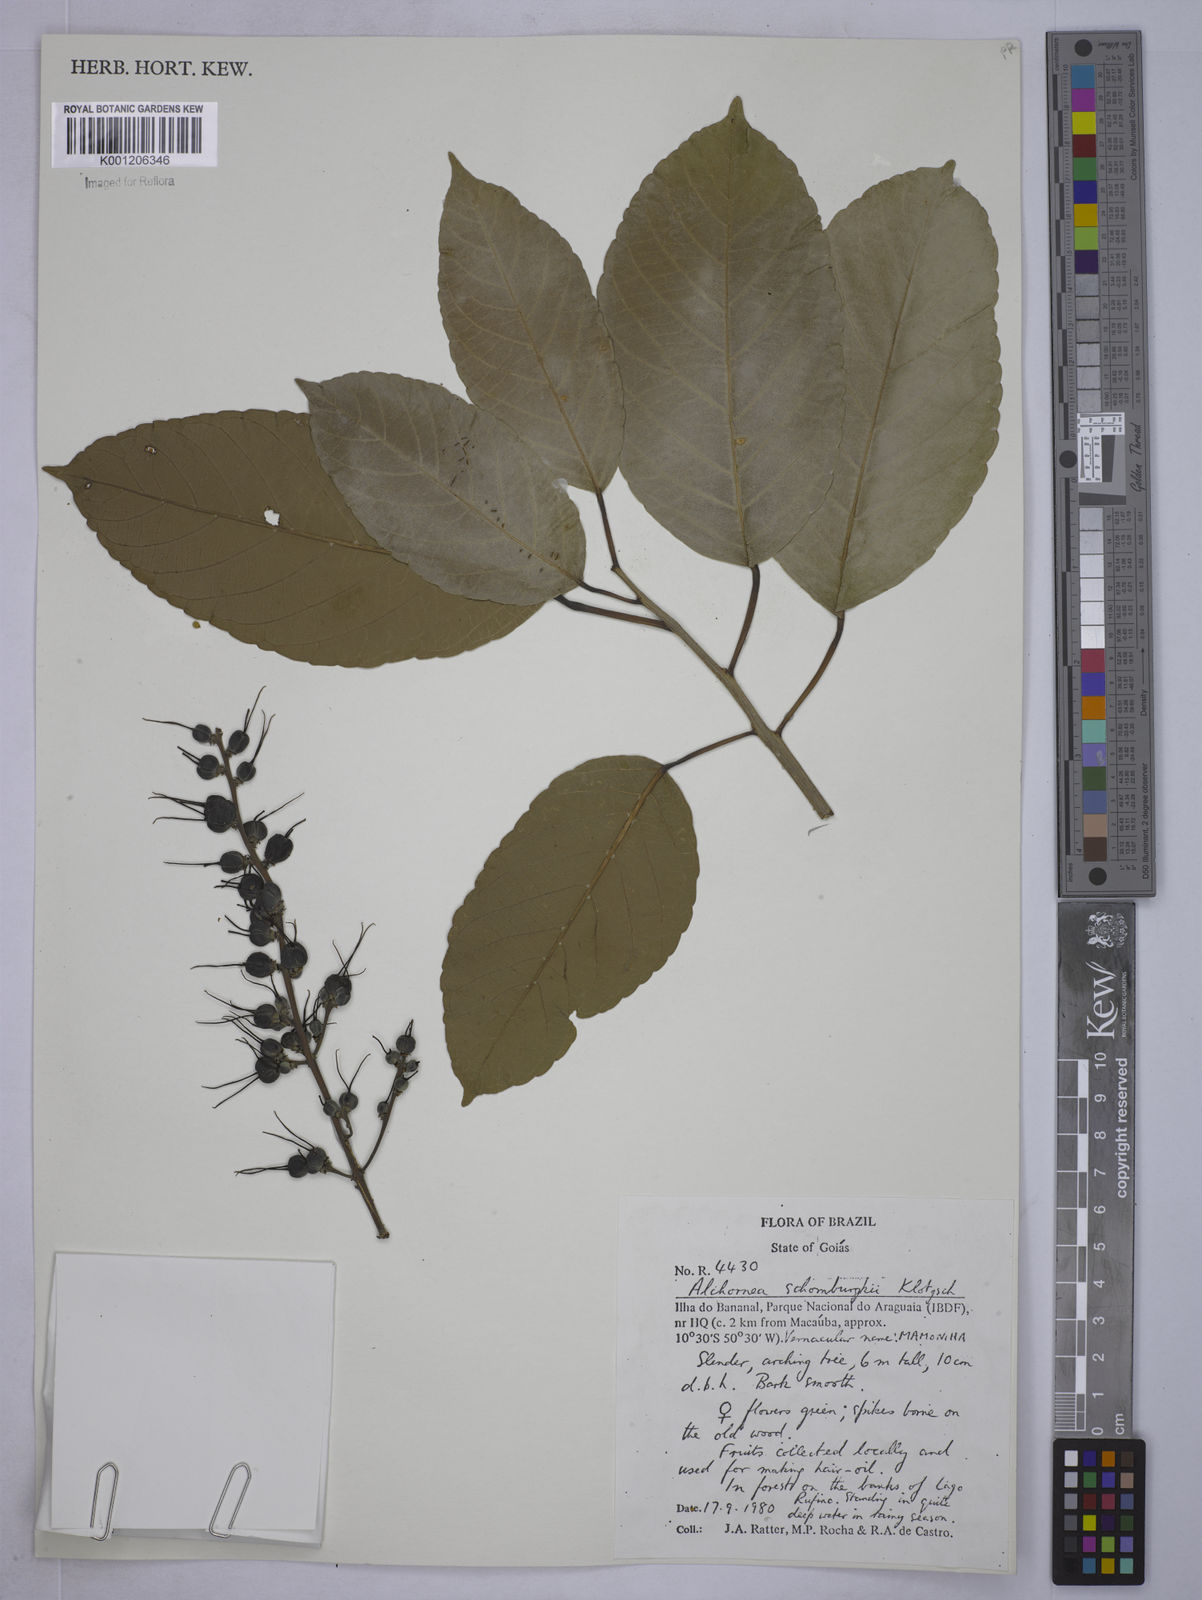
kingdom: Plantae
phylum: Tracheophyta
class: Magnoliopsida
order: Malpighiales
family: Euphorbiaceae
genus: Alchornea
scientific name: Alchornea discolor
